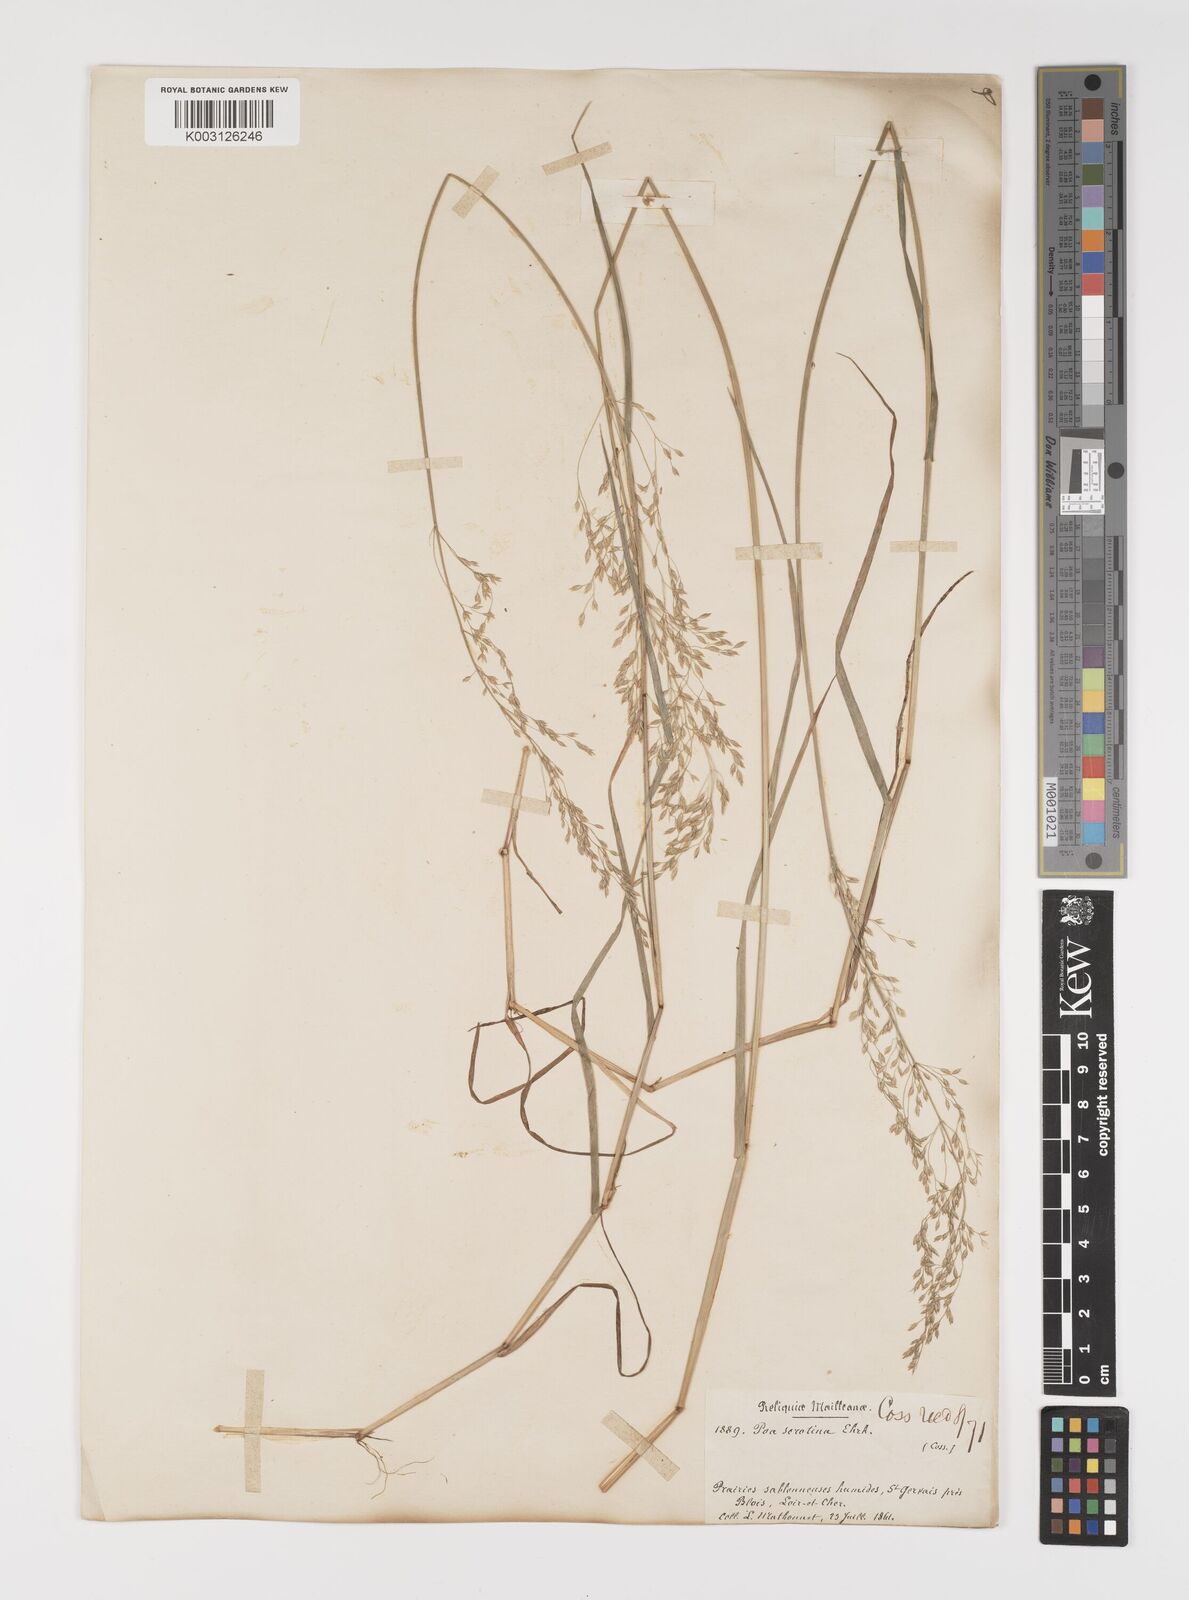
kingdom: Plantae
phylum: Tracheophyta
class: Liliopsida
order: Poales
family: Poaceae
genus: Poa
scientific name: Poa palustris
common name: Swamp meadow-grass
